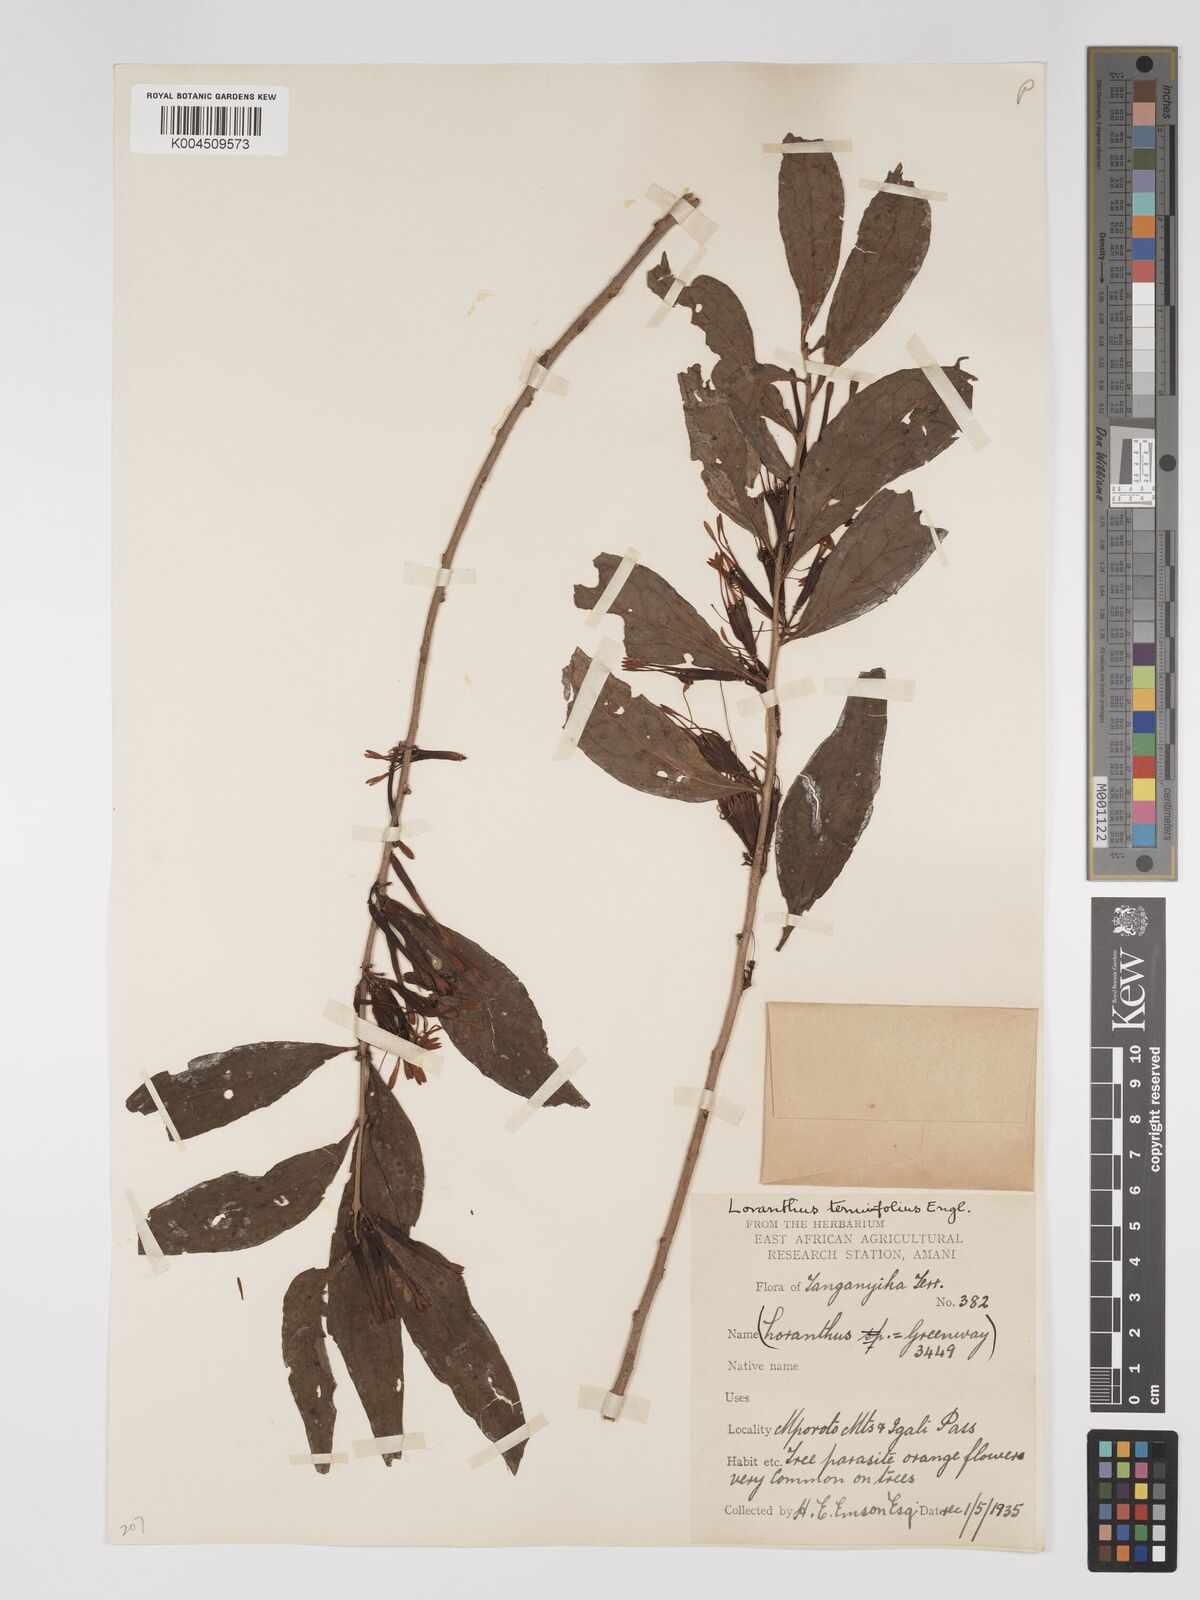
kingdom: Plantae
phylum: Tracheophyta
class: Magnoliopsida
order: Santalales
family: Loranthaceae
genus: Englerina
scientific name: Englerina inaequilatera
